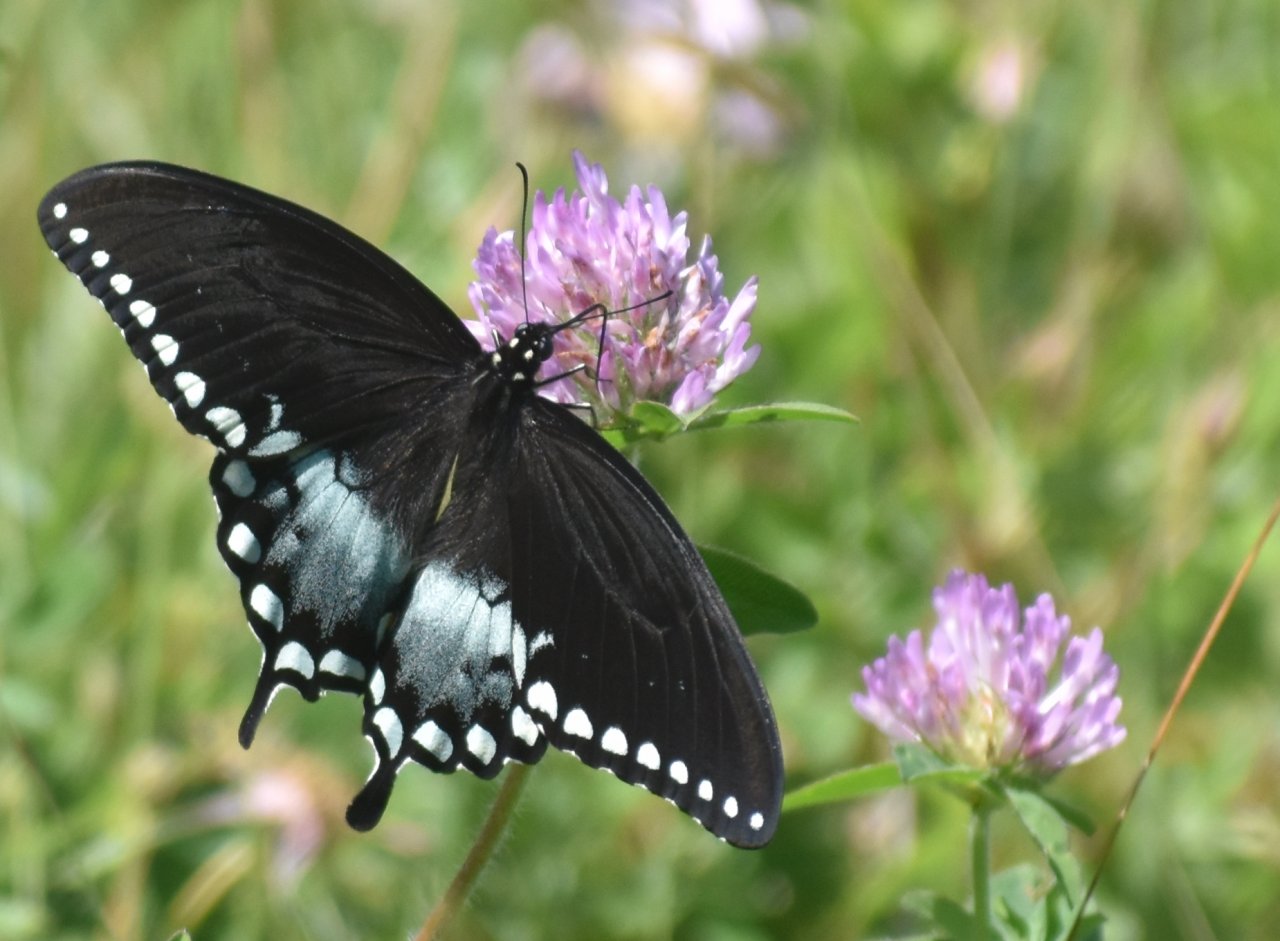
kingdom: Animalia
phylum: Arthropoda
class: Insecta
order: Lepidoptera
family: Papilionidae
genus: Pterourus
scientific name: Pterourus troilus
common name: Spicebush Swallowtail
